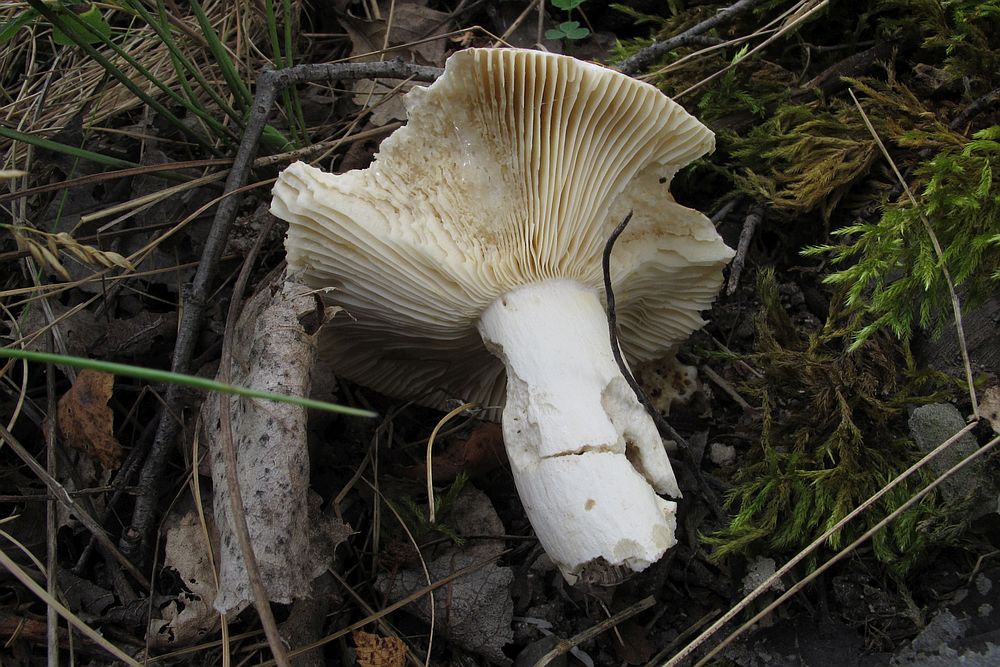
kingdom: Fungi
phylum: Basidiomycota
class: Agaricomycetes
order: Russulales
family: Russulaceae
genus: Russula
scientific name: Russula depallens
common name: falmende skørhat
